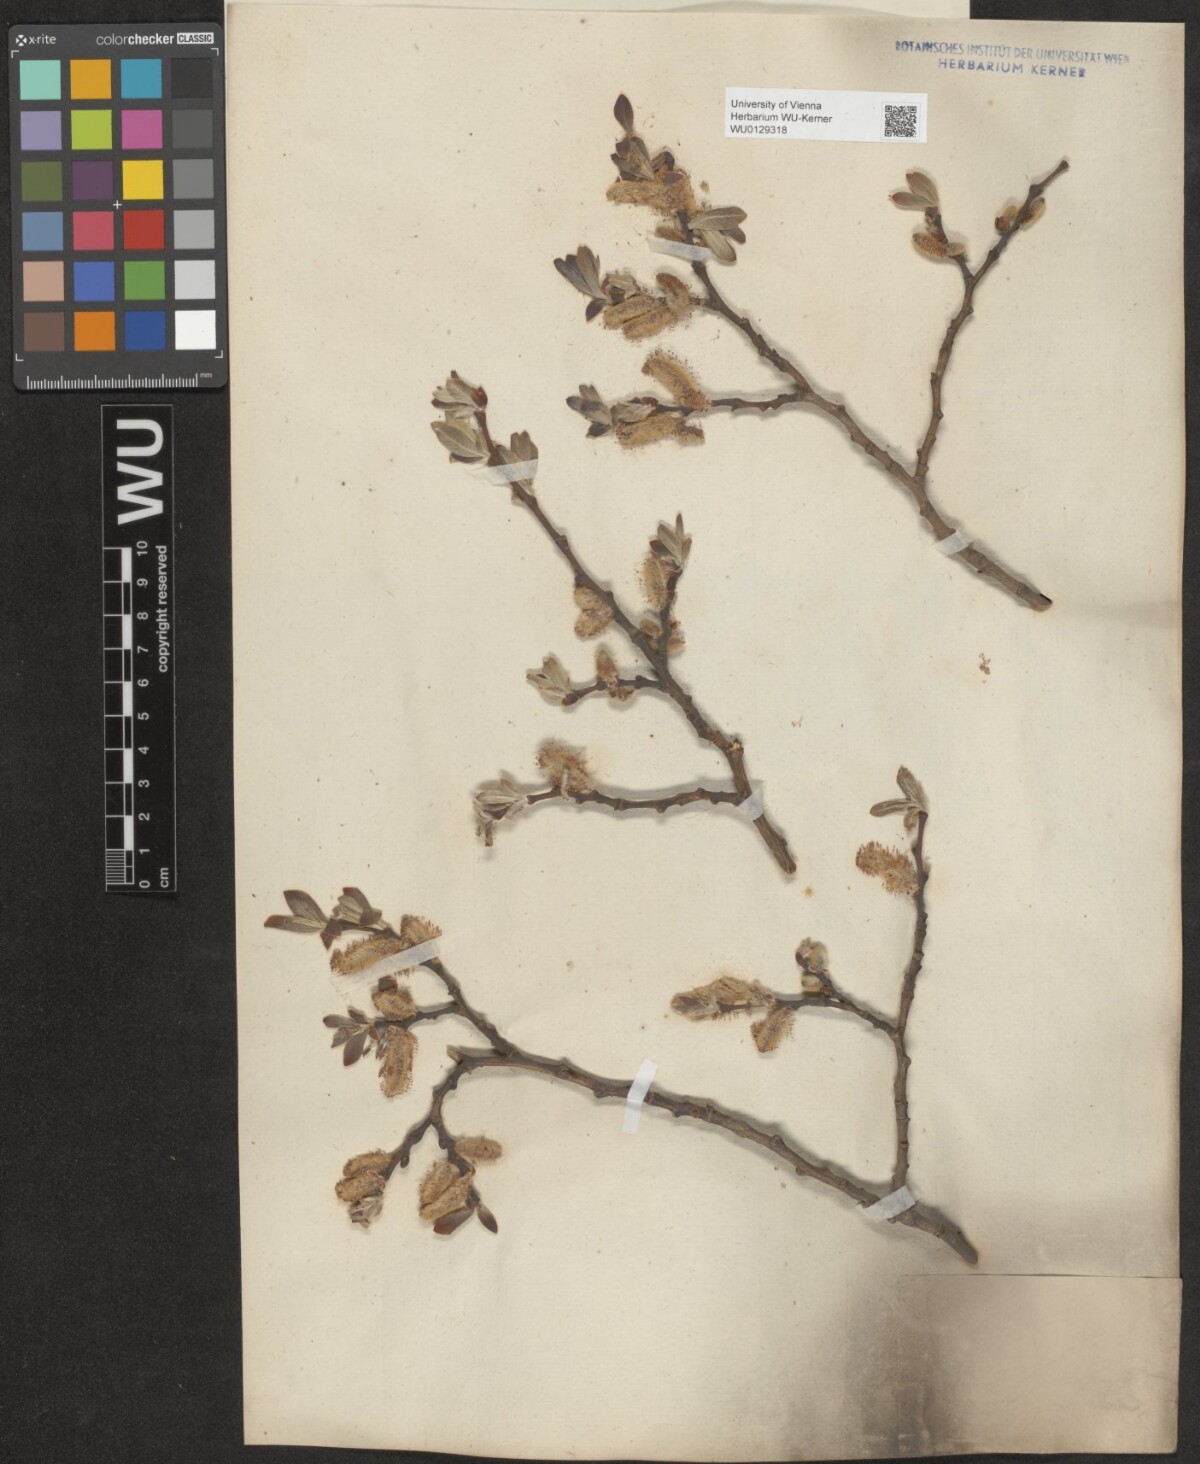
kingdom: Plantae
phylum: Tracheophyta
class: Magnoliopsida
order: Malpighiales
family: Salicaceae
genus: Salix
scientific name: Salix appendiculata
